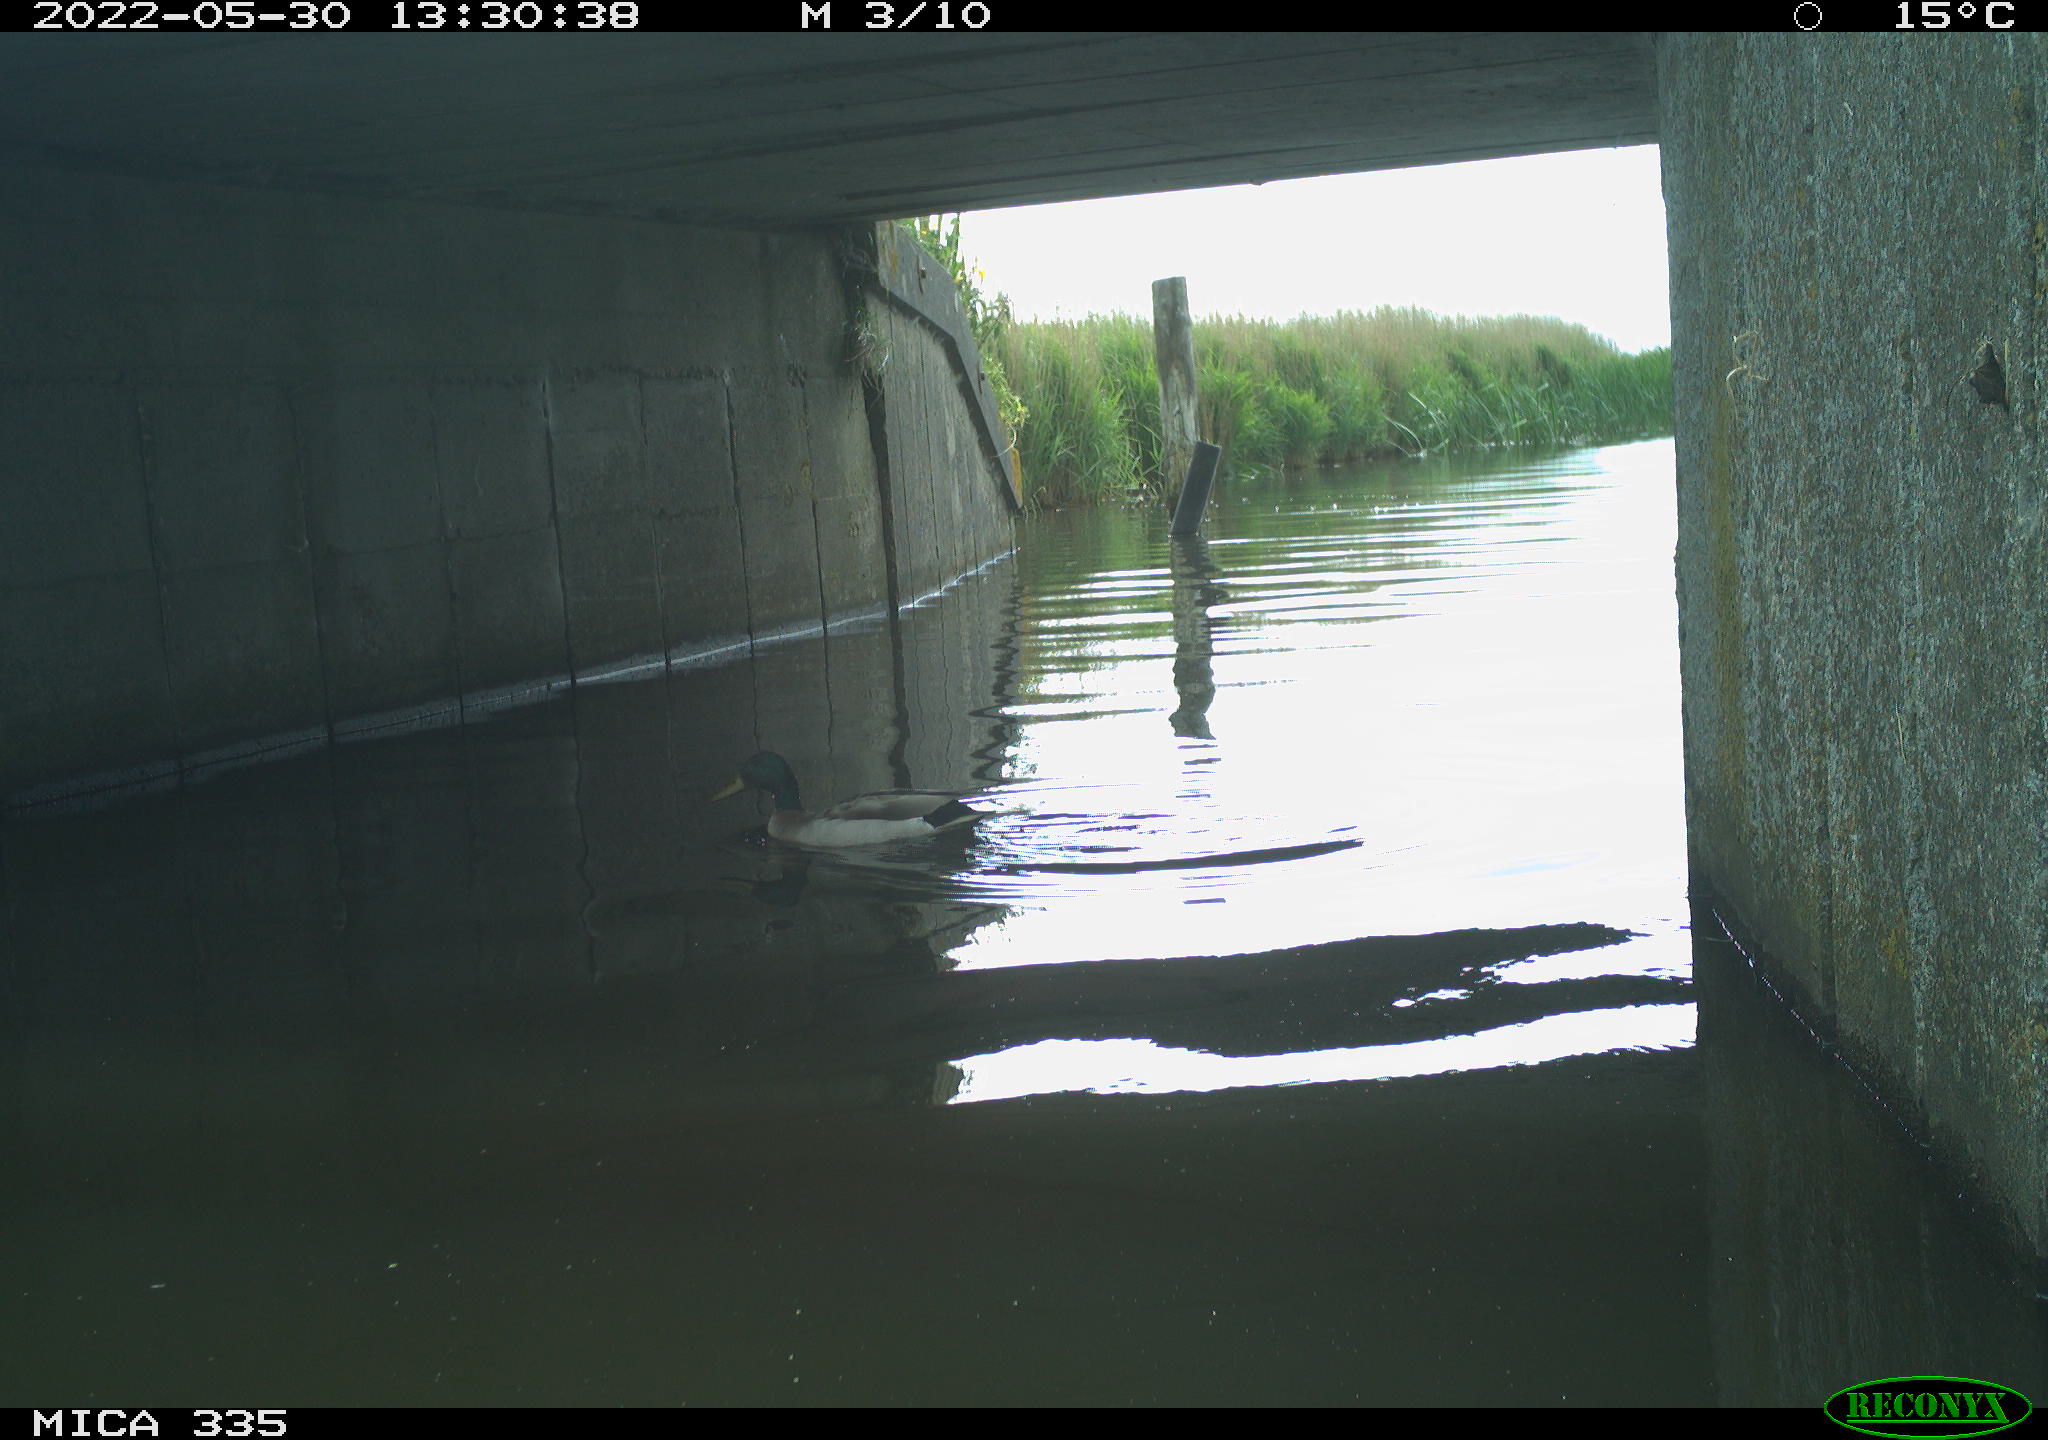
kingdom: Animalia
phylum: Chordata
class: Aves
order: Anseriformes
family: Anatidae
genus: Anas
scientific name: Anas platyrhynchos
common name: Mallard
